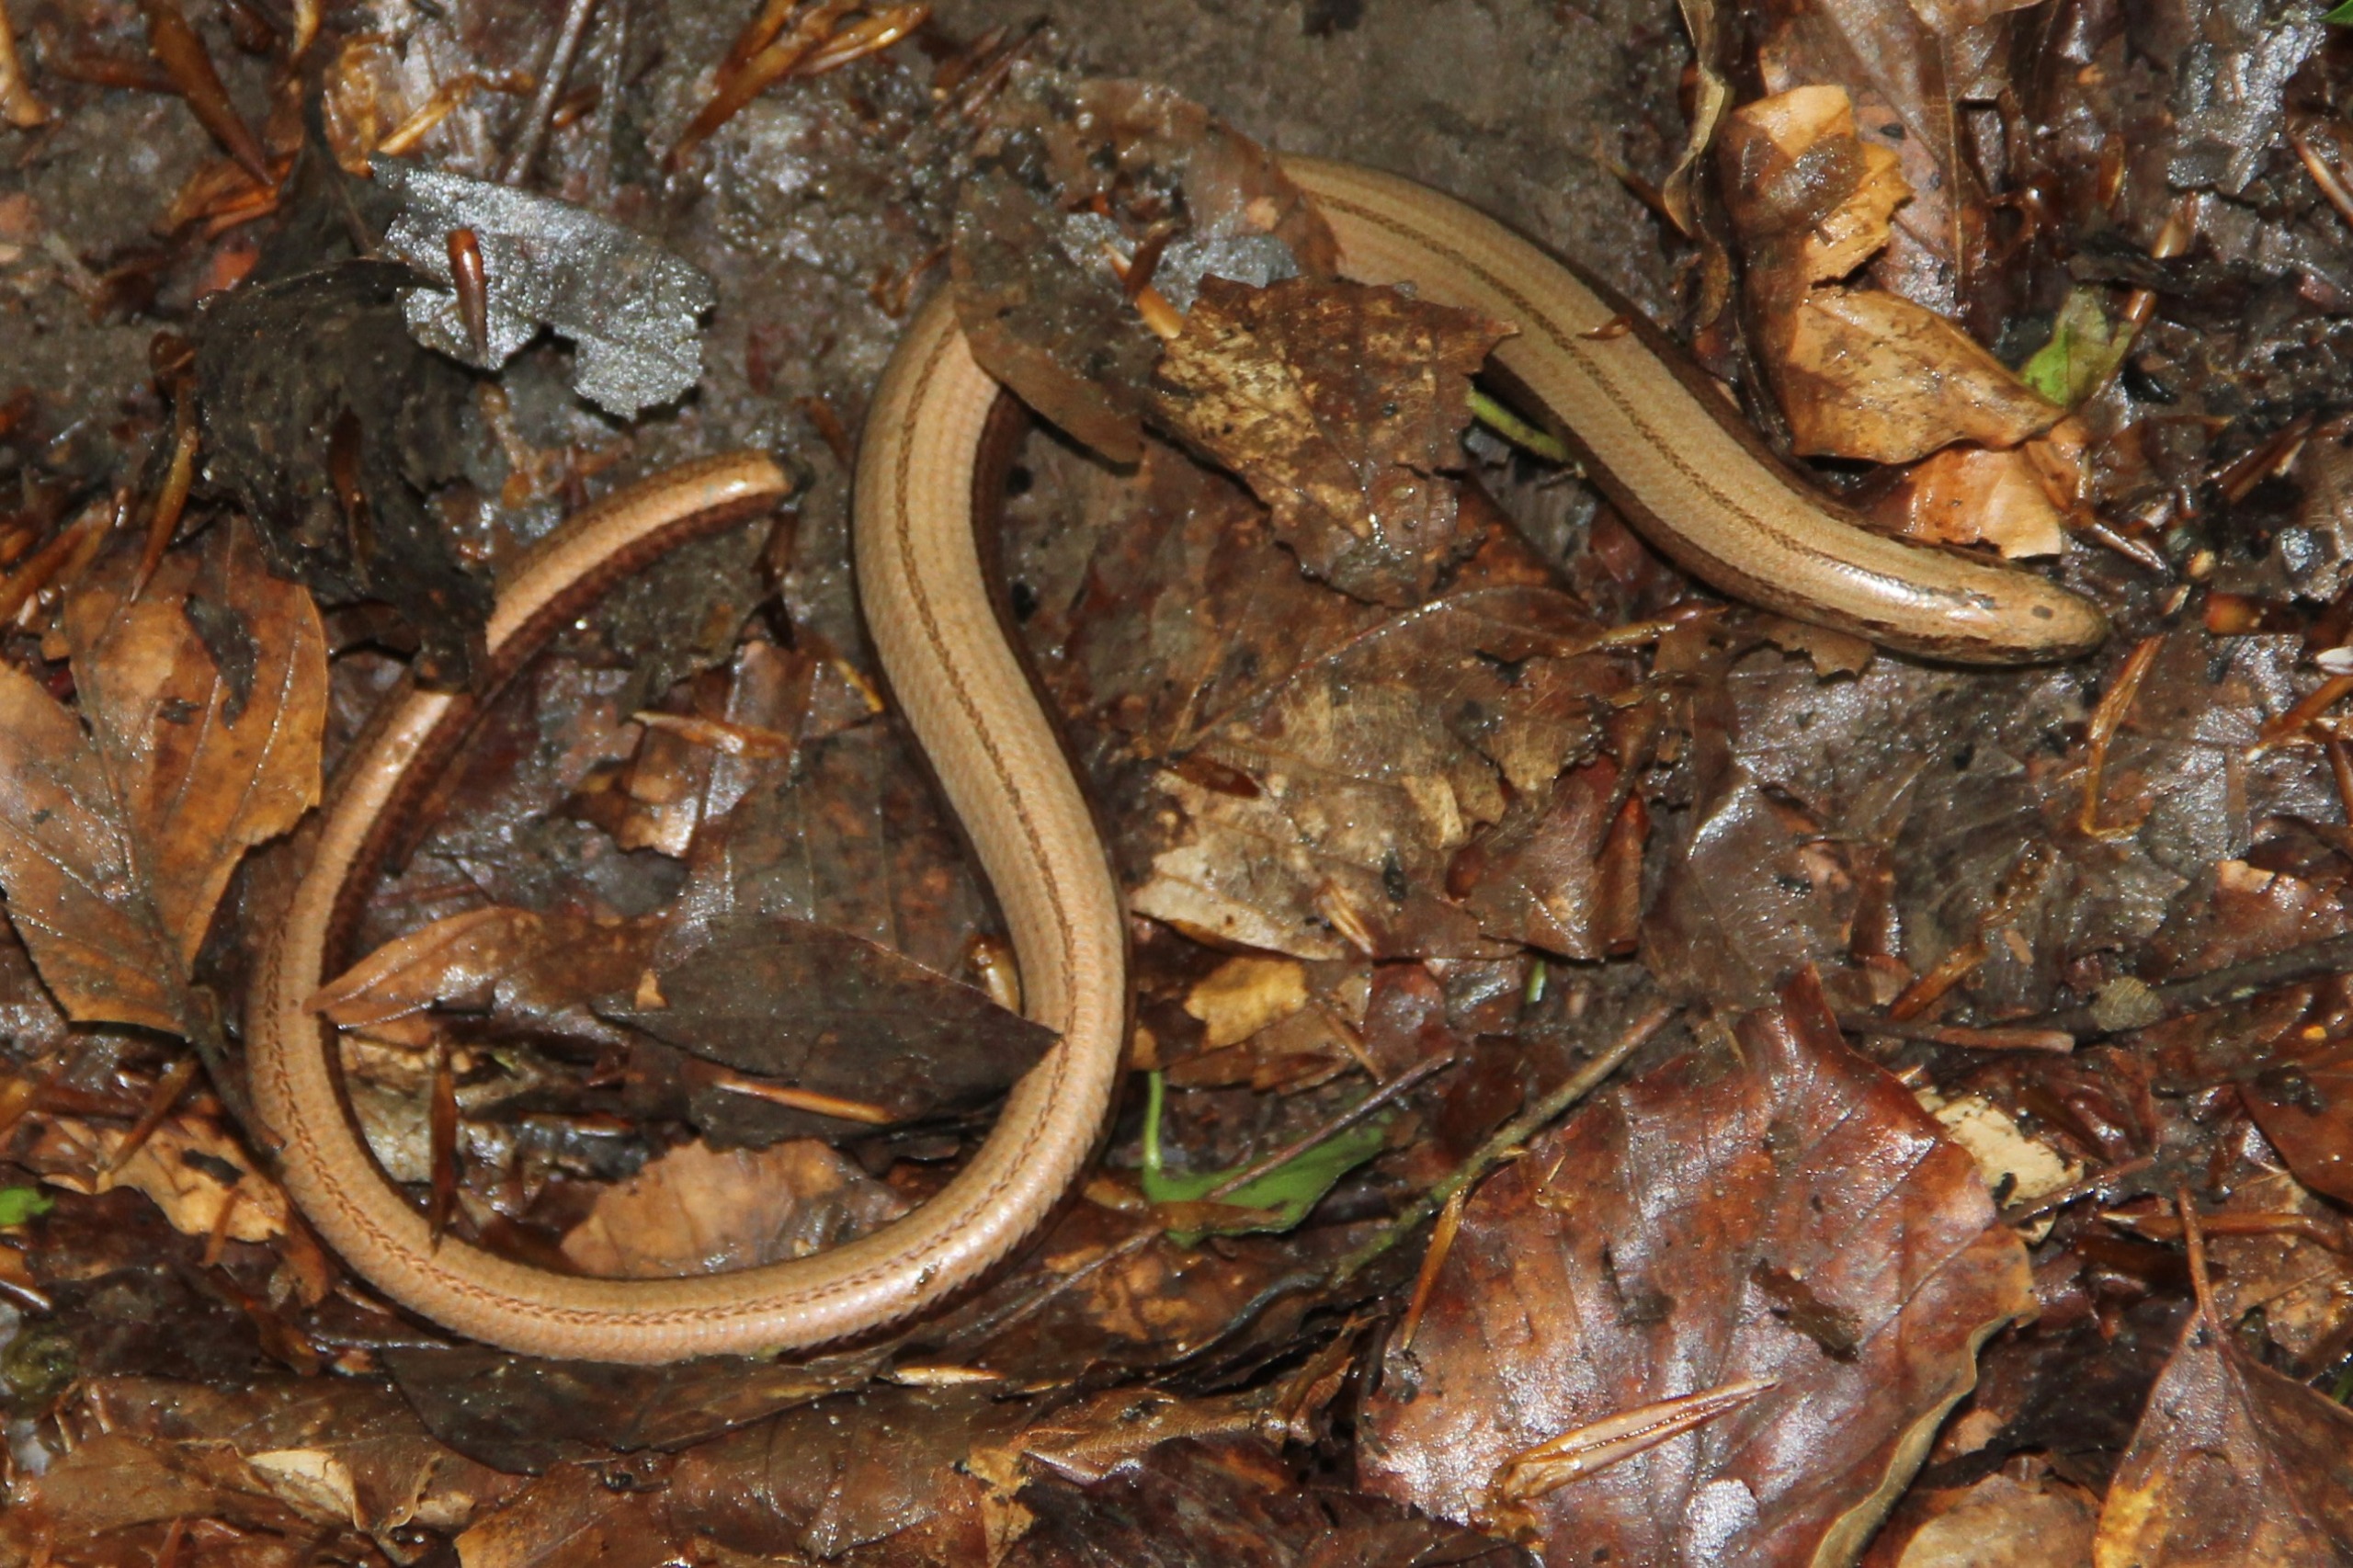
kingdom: Animalia
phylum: Chordata
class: Squamata
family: Anguidae
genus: Anguis
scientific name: Anguis fragilis
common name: Stålorm
